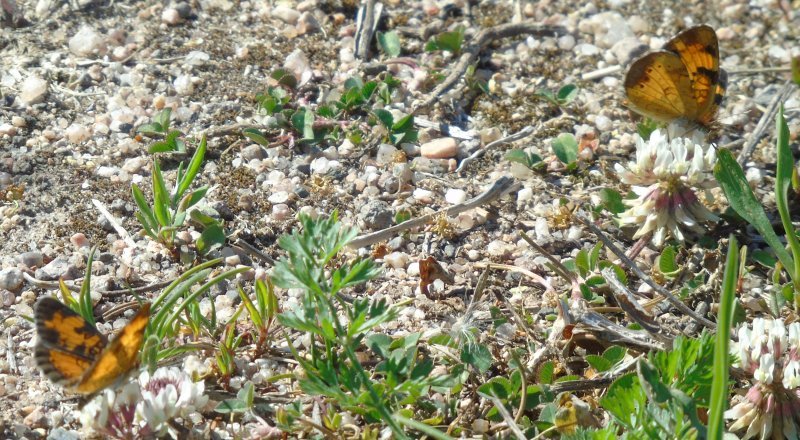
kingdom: Animalia
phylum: Arthropoda
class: Insecta
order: Lepidoptera
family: Nymphalidae
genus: Phyciodes
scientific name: Phyciodes tharos
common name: Northern Crescent
